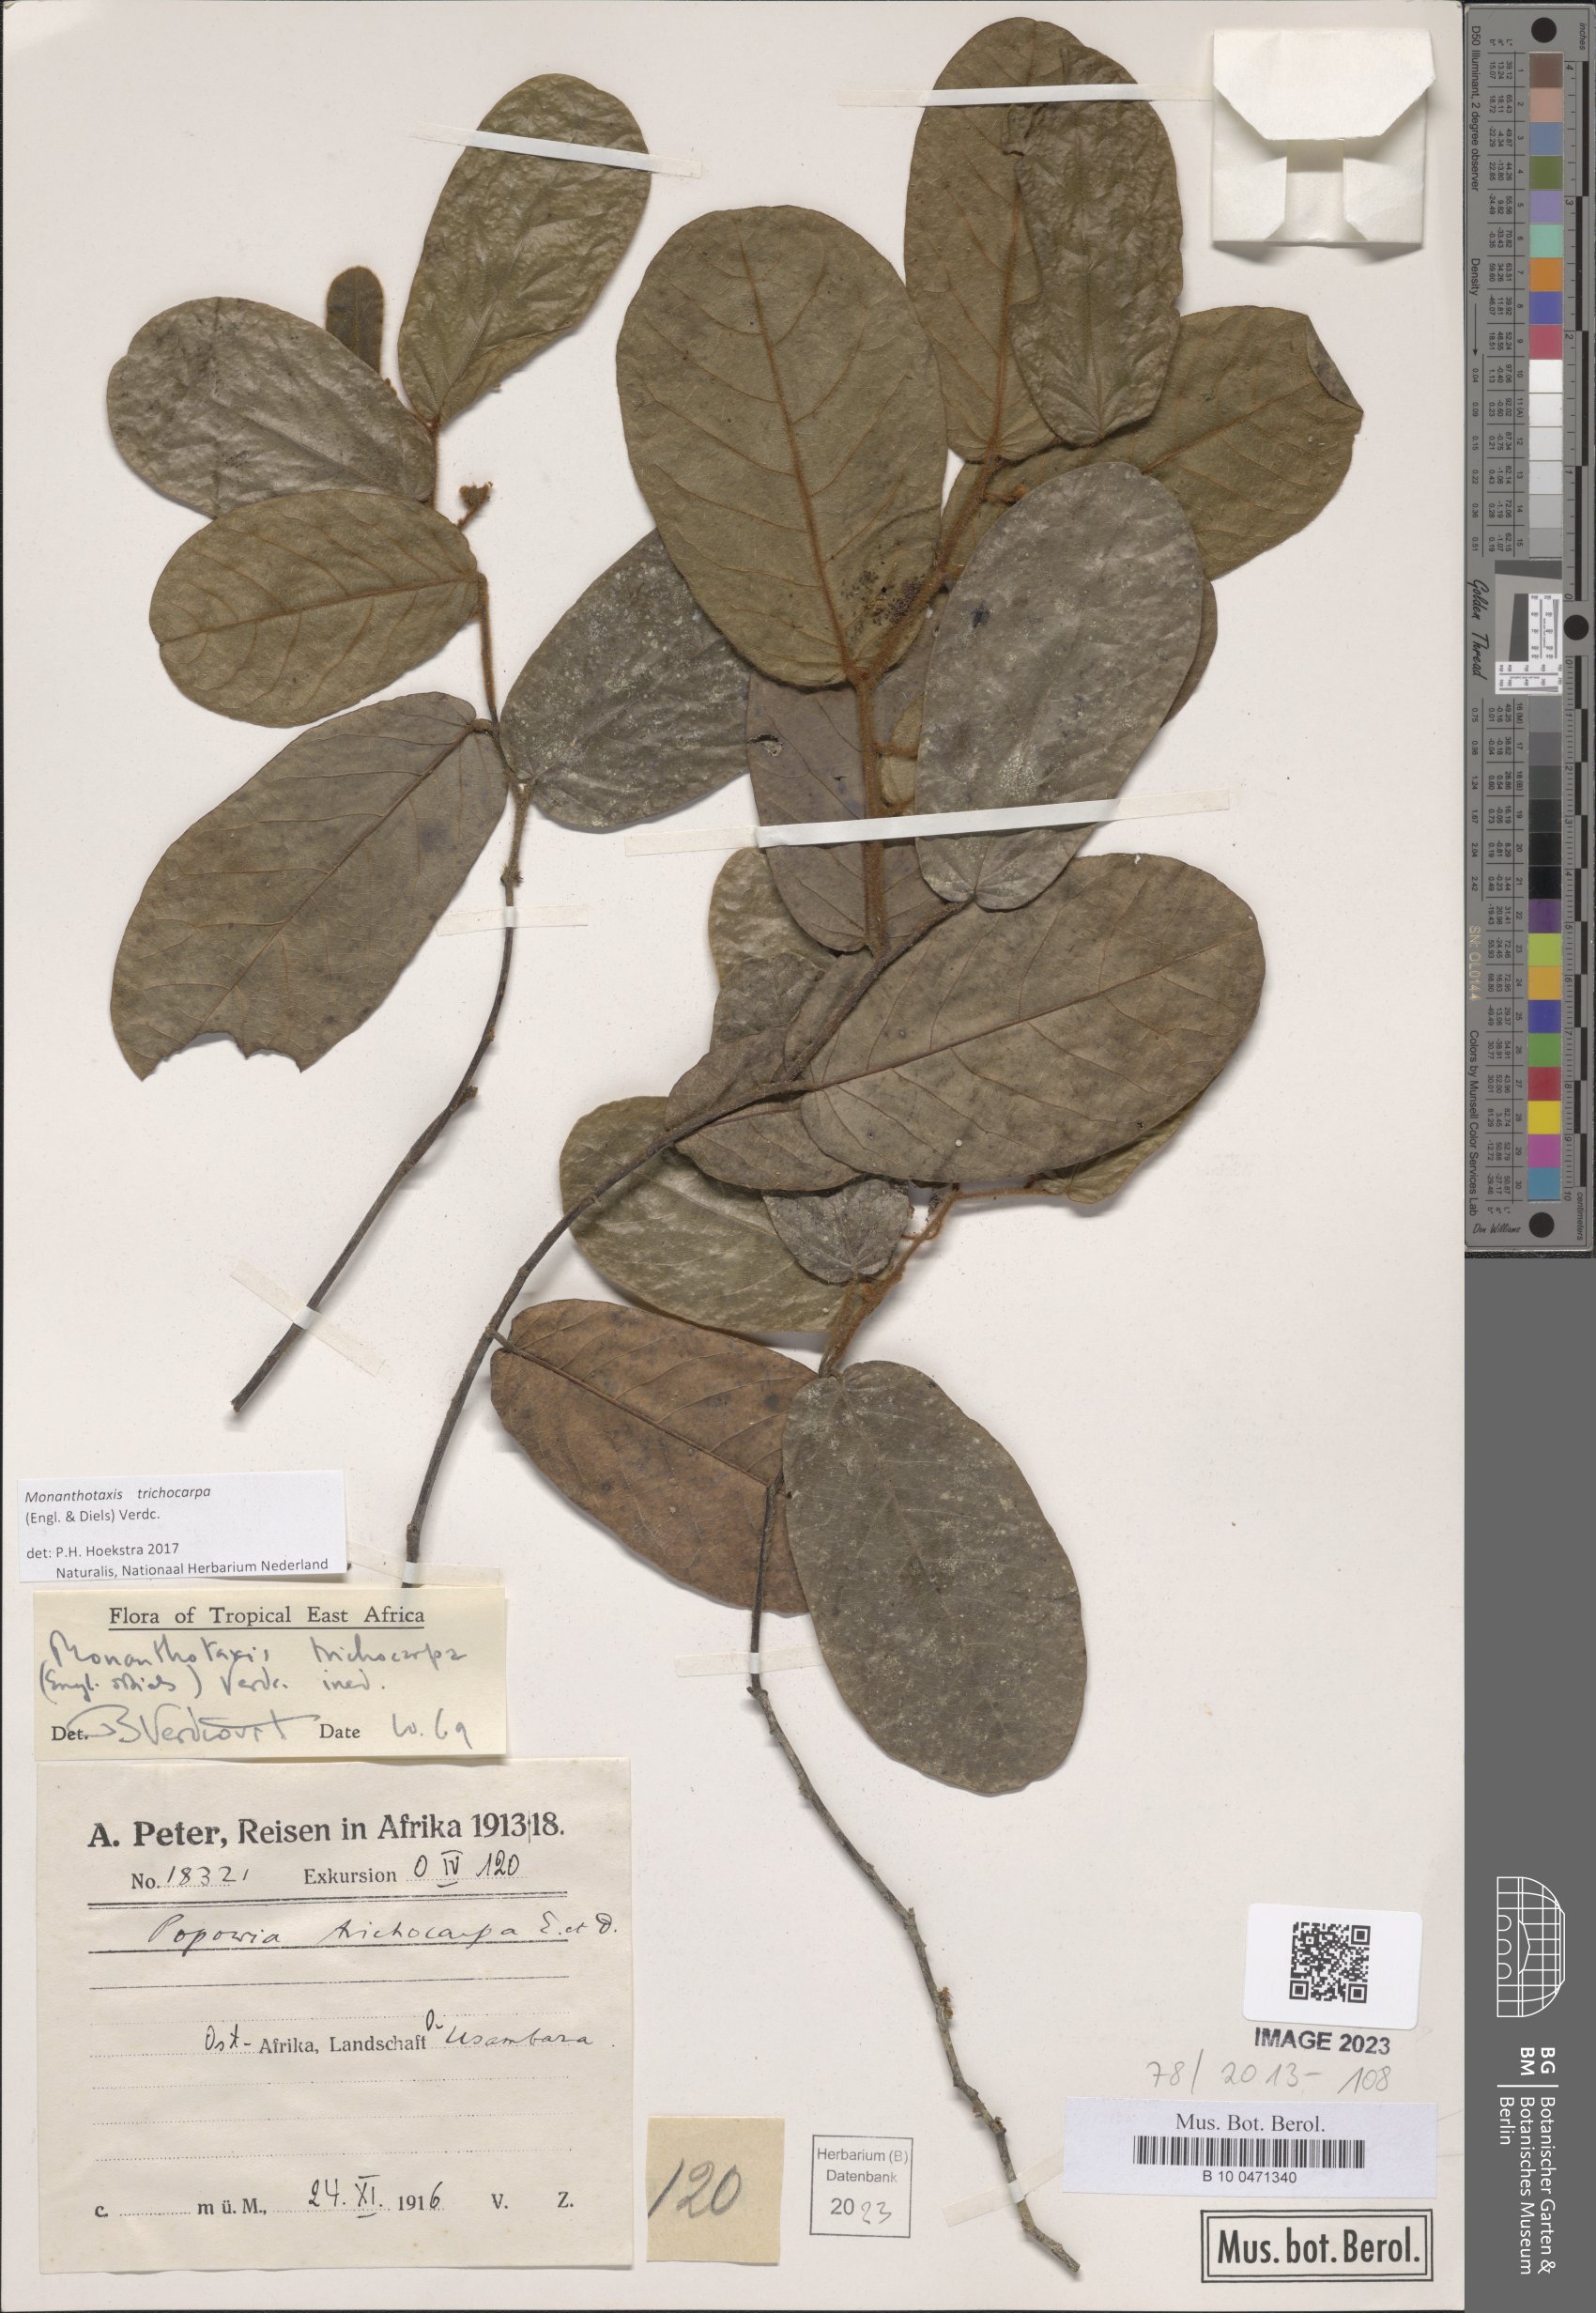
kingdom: Plantae
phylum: Tracheophyta
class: Magnoliopsida
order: Magnoliales
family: Annonaceae
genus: Monanthotaxis
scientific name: Monanthotaxis trichocarpa
